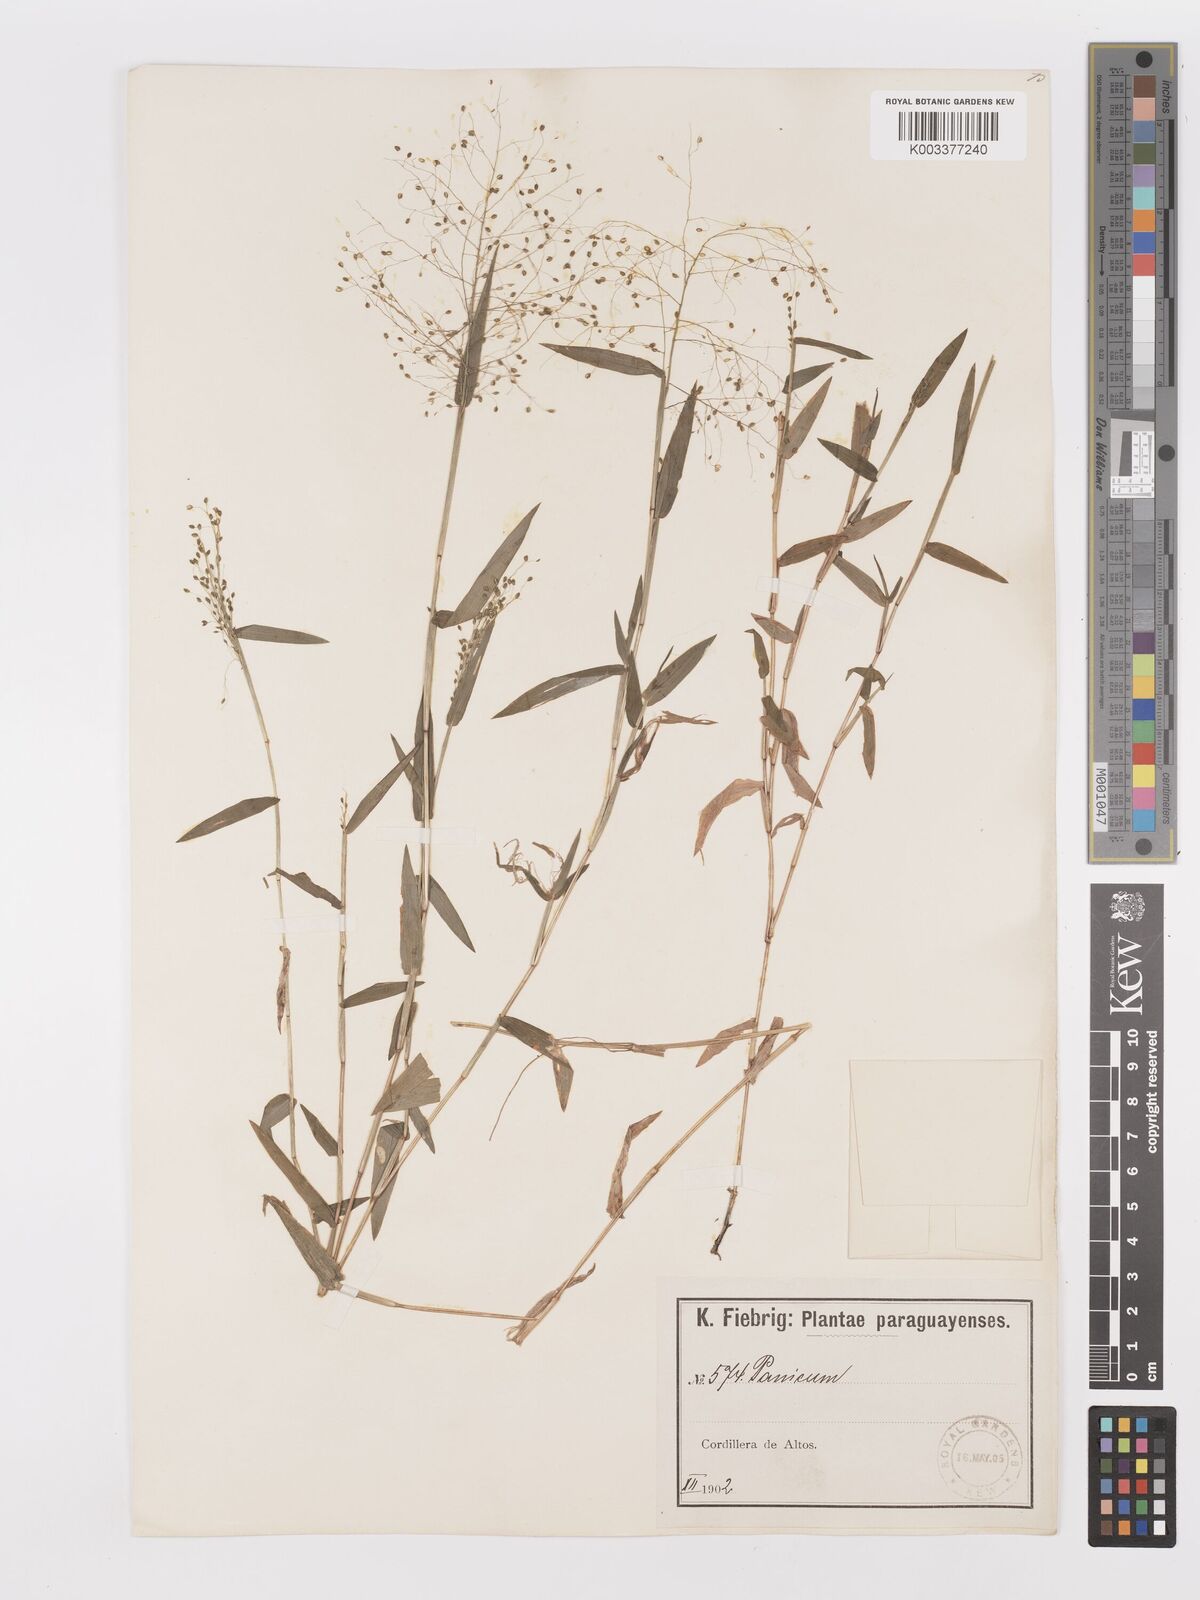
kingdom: Plantae
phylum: Tracheophyta
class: Liliopsida
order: Poales
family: Poaceae
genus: Trichanthecium
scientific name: Trichanthecium schwackeanum
